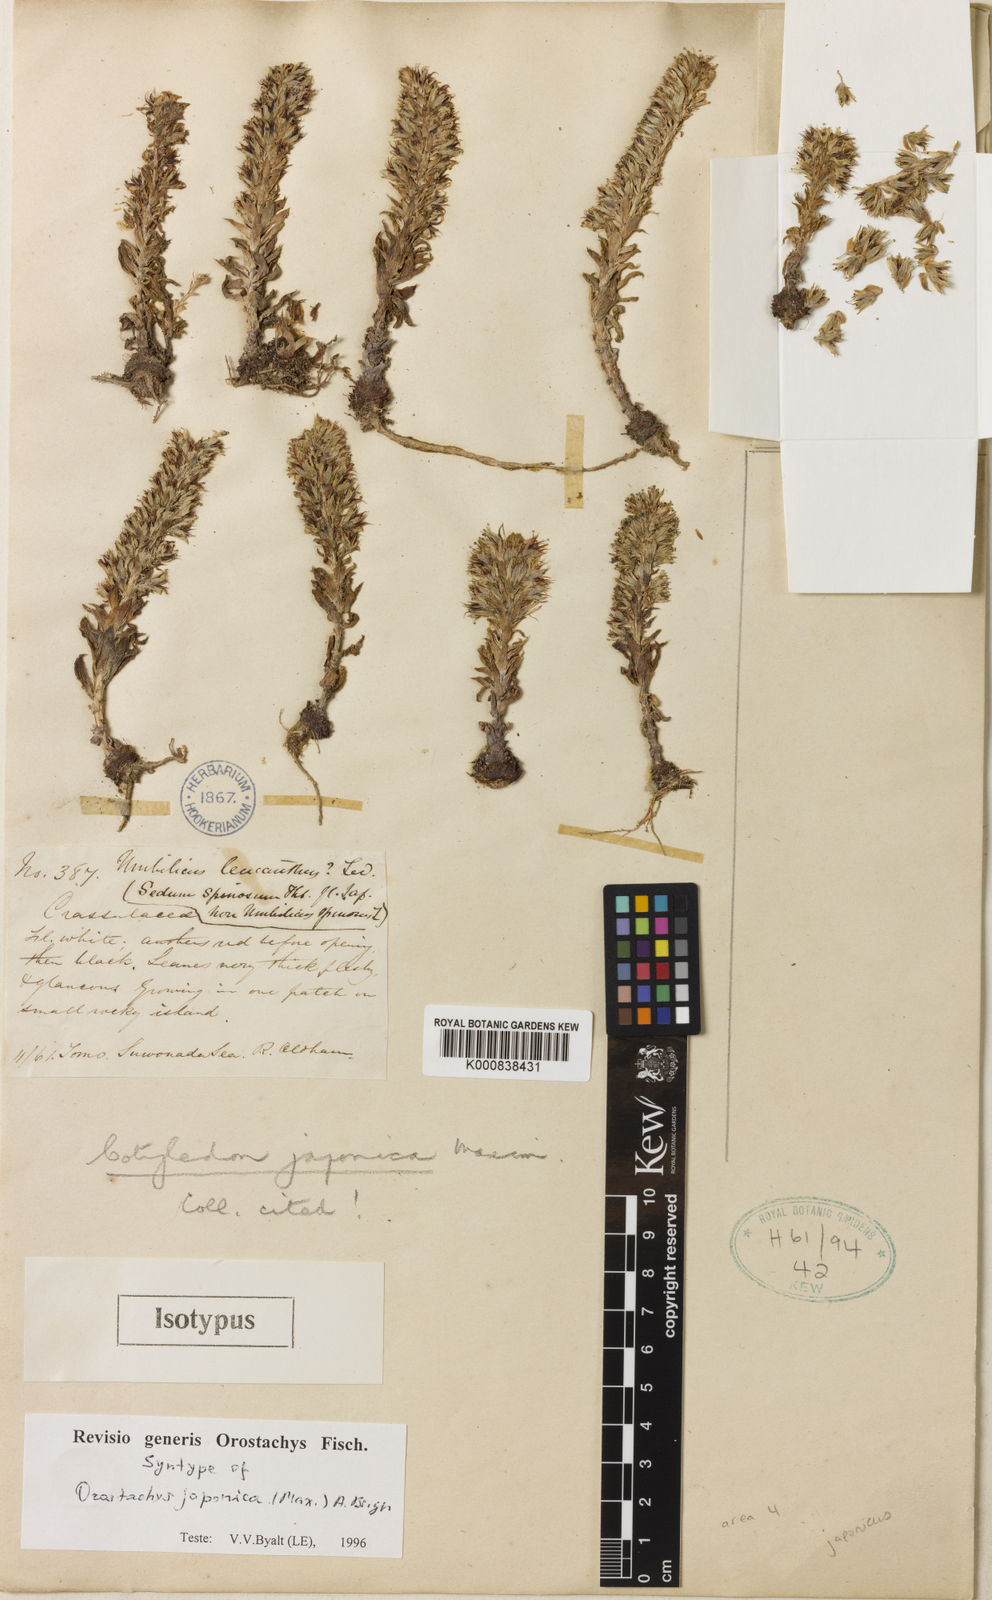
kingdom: Plantae
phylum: Tracheophyta
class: Magnoliopsida
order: Saxifragales
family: Crassulaceae
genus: Orostachys
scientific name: Orostachys japonica
